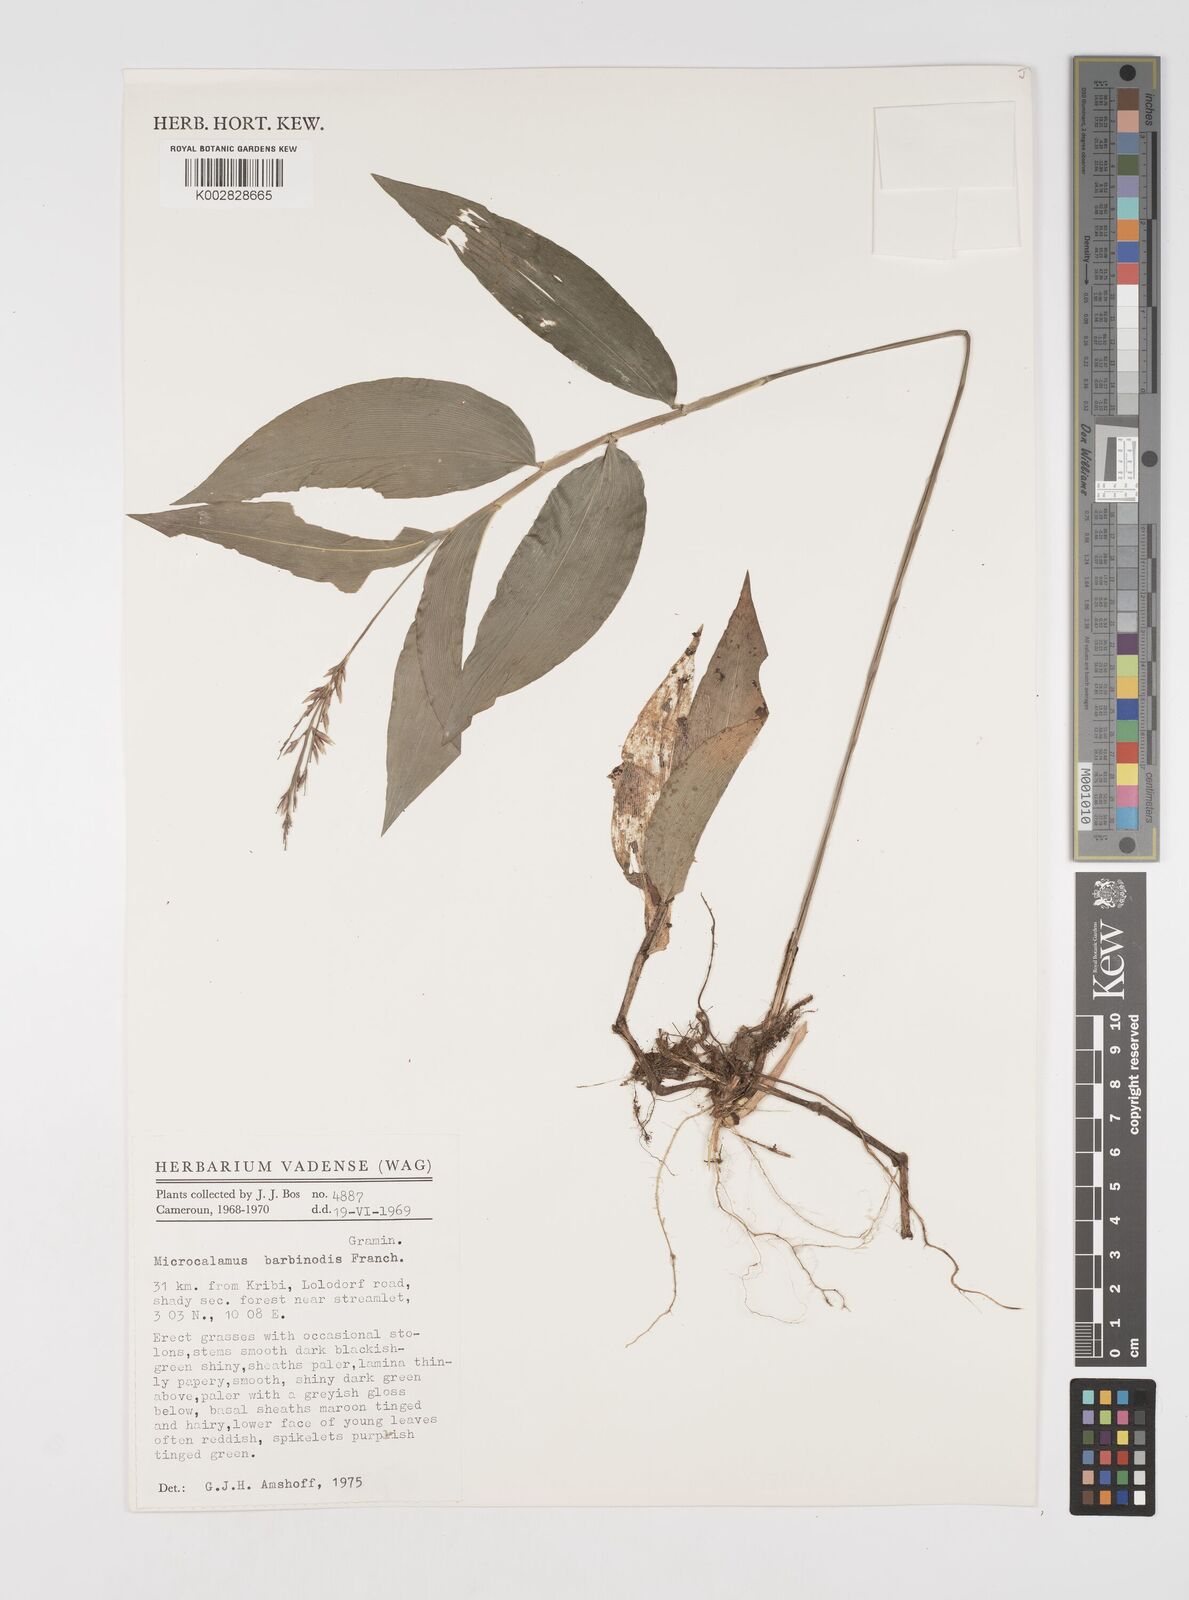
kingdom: Plantae
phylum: Tracheophyta
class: Liliopsida
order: Poales
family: Poaceae
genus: Microcalamus
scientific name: Microcalamus barbinodis
